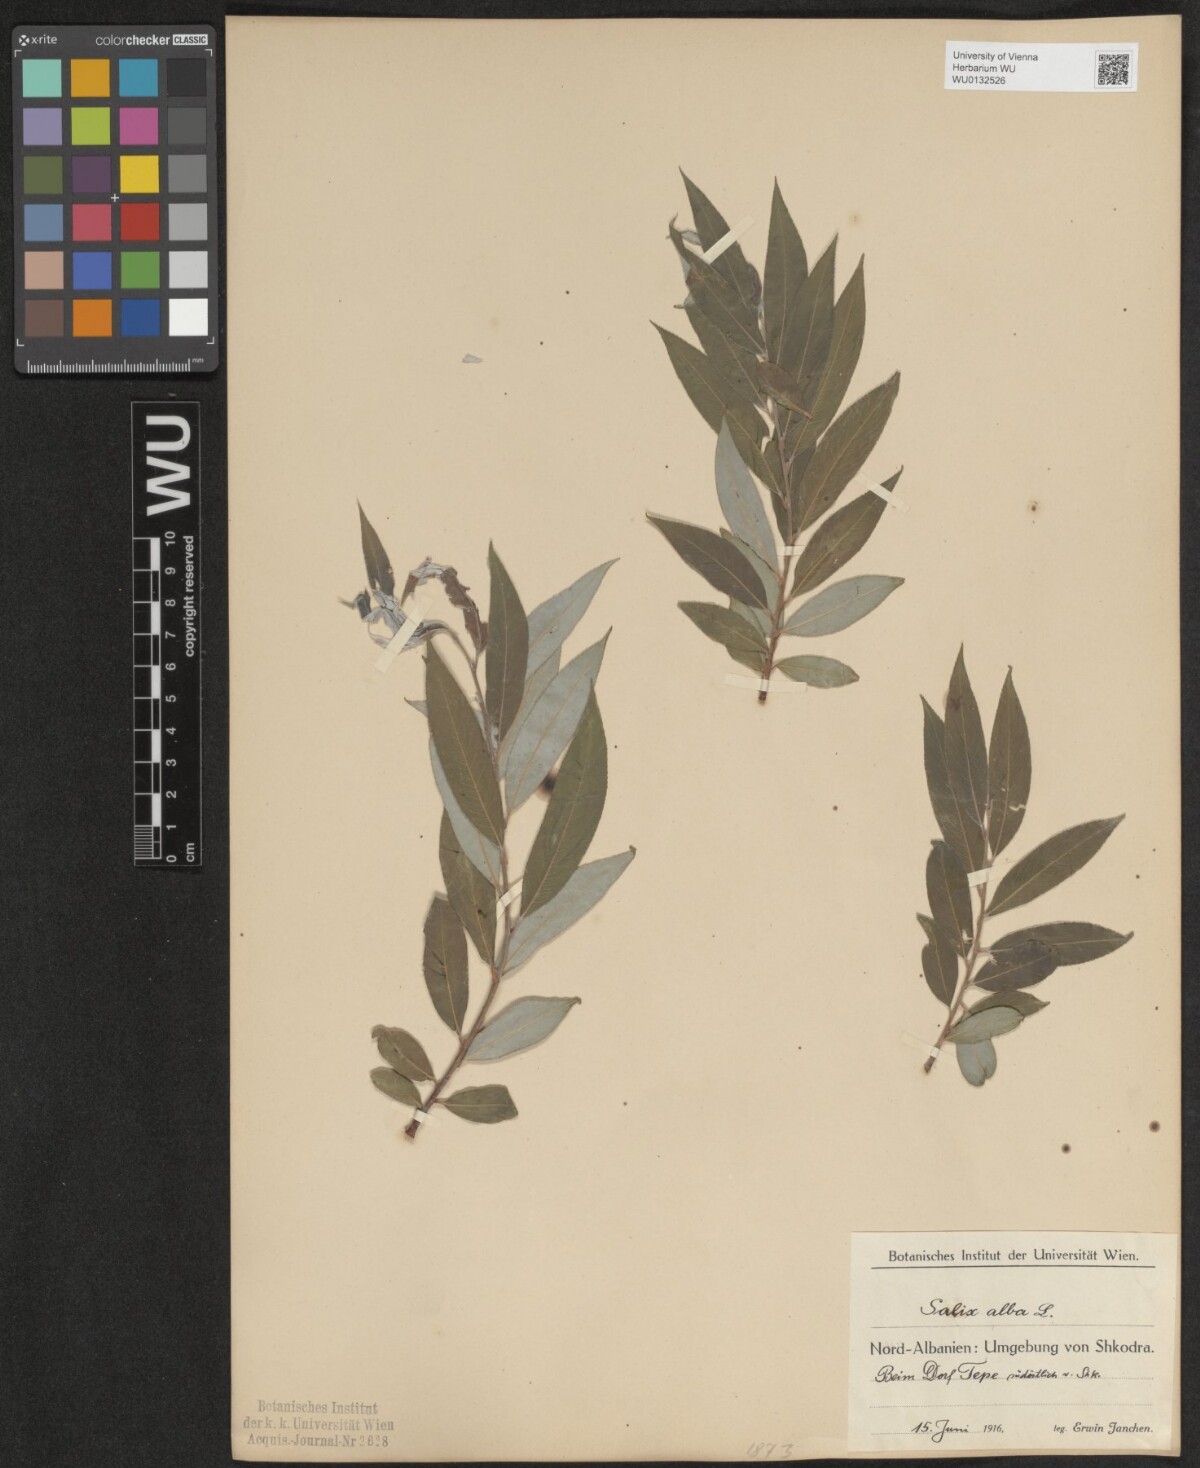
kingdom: Plantae
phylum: Tracheophyta
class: Magnoliopsida
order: Malpighiales
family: Salicaceae
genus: Salix
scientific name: Salix alba
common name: White willow
